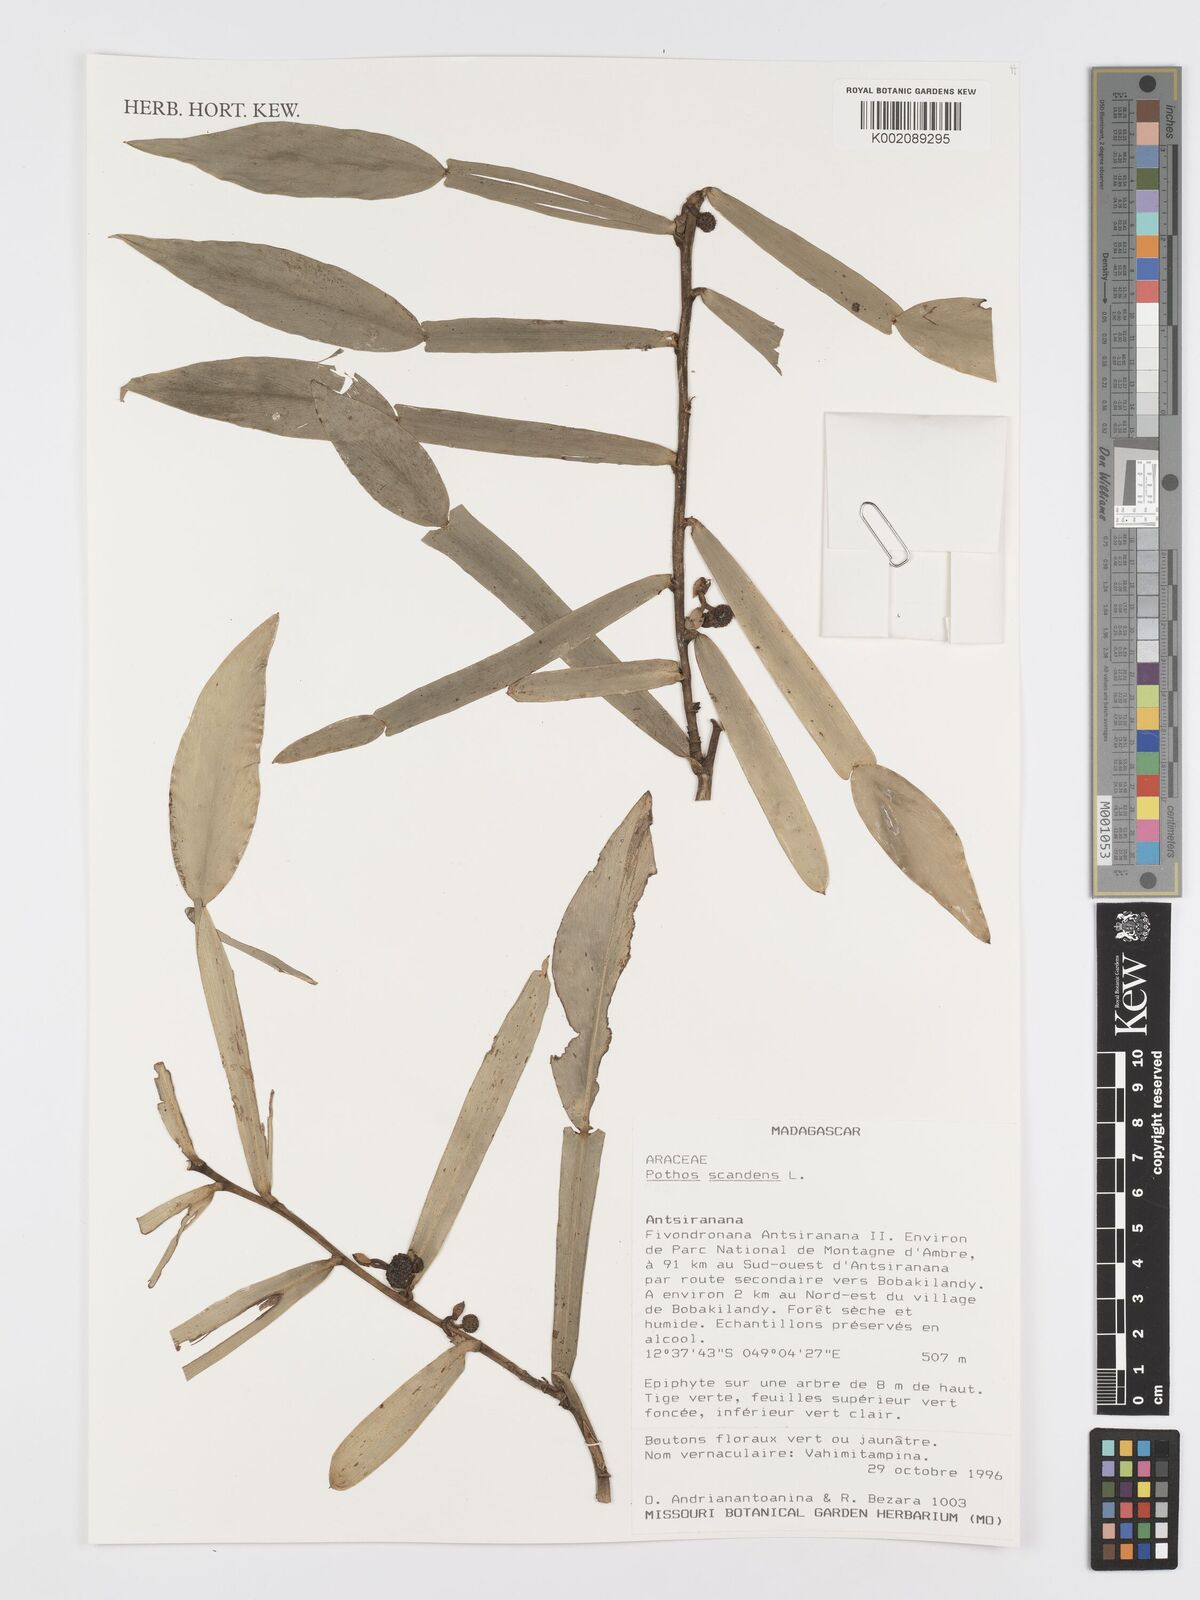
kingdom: Plantae
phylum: Tracheophyta
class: Liliopsida
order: Alismatales
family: Araceae
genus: Pothos
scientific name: Pothos scandens
